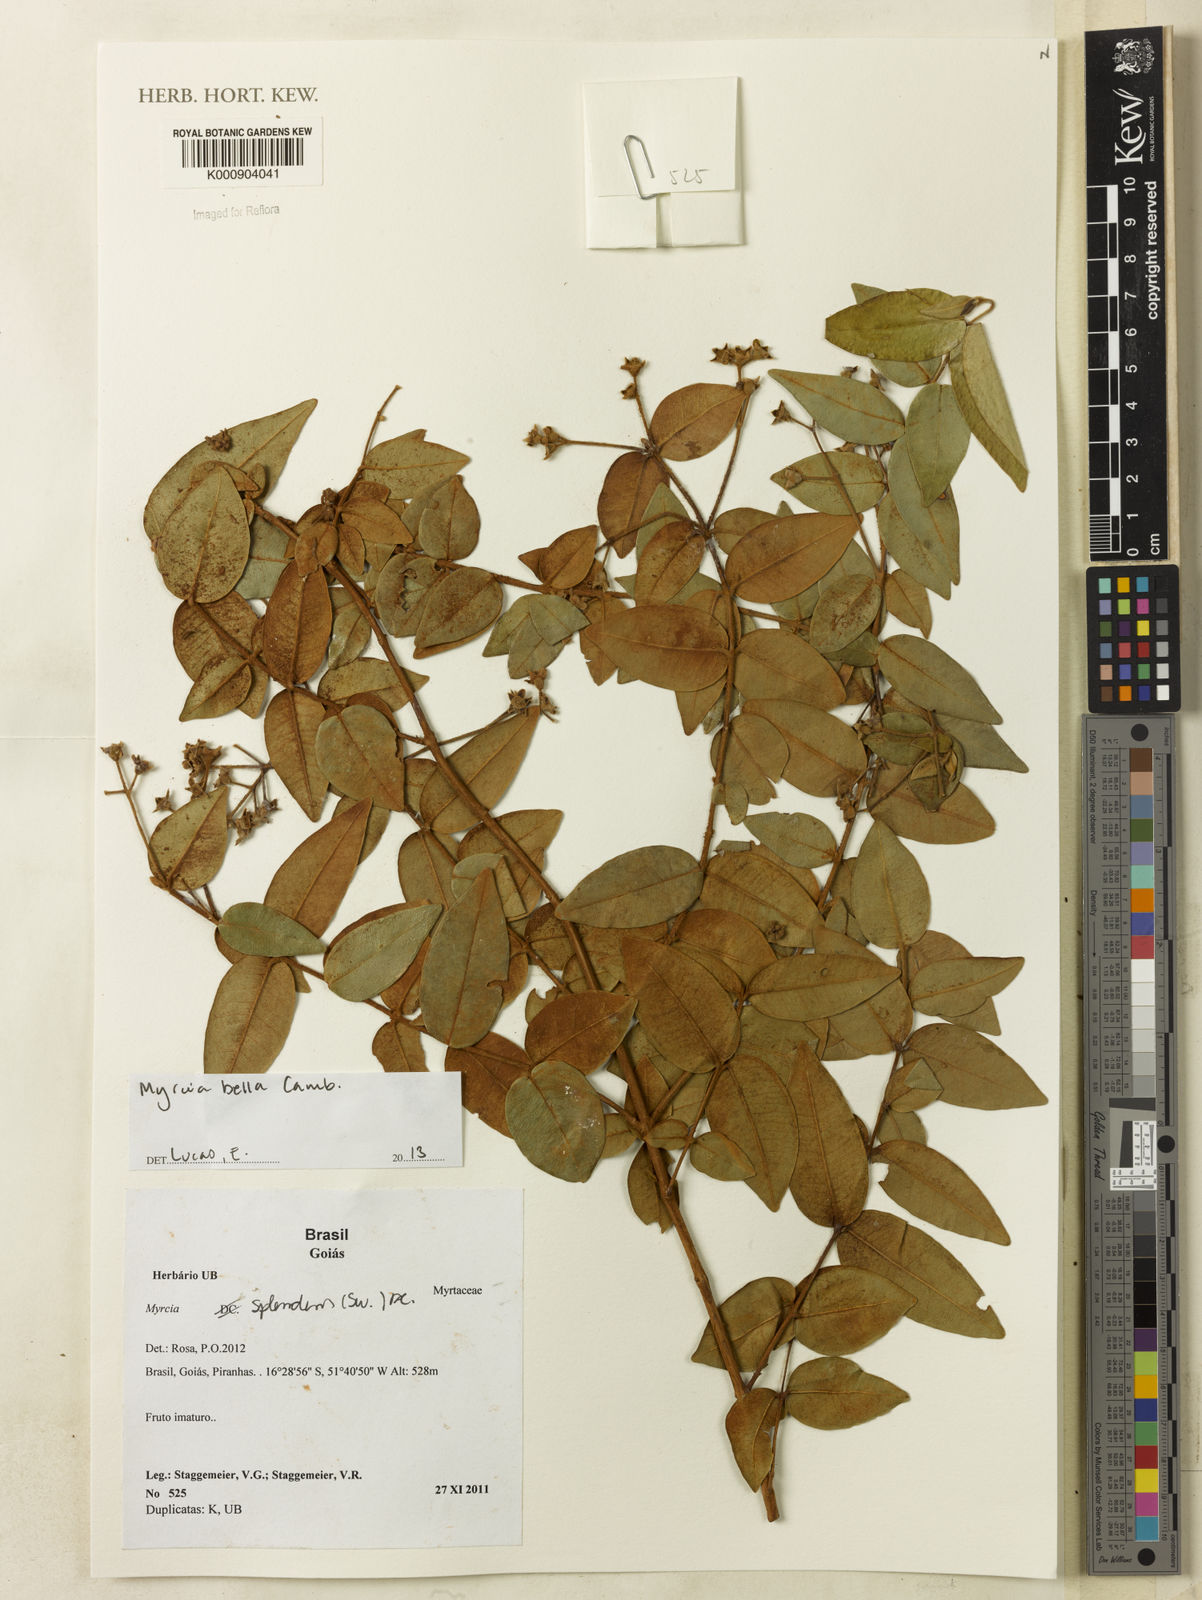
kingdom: Plantae
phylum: Tracheophyta
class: Magnoliopsida
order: Myrtales
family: Myrtaceae
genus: Myrcia
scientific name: Myrcia bella
